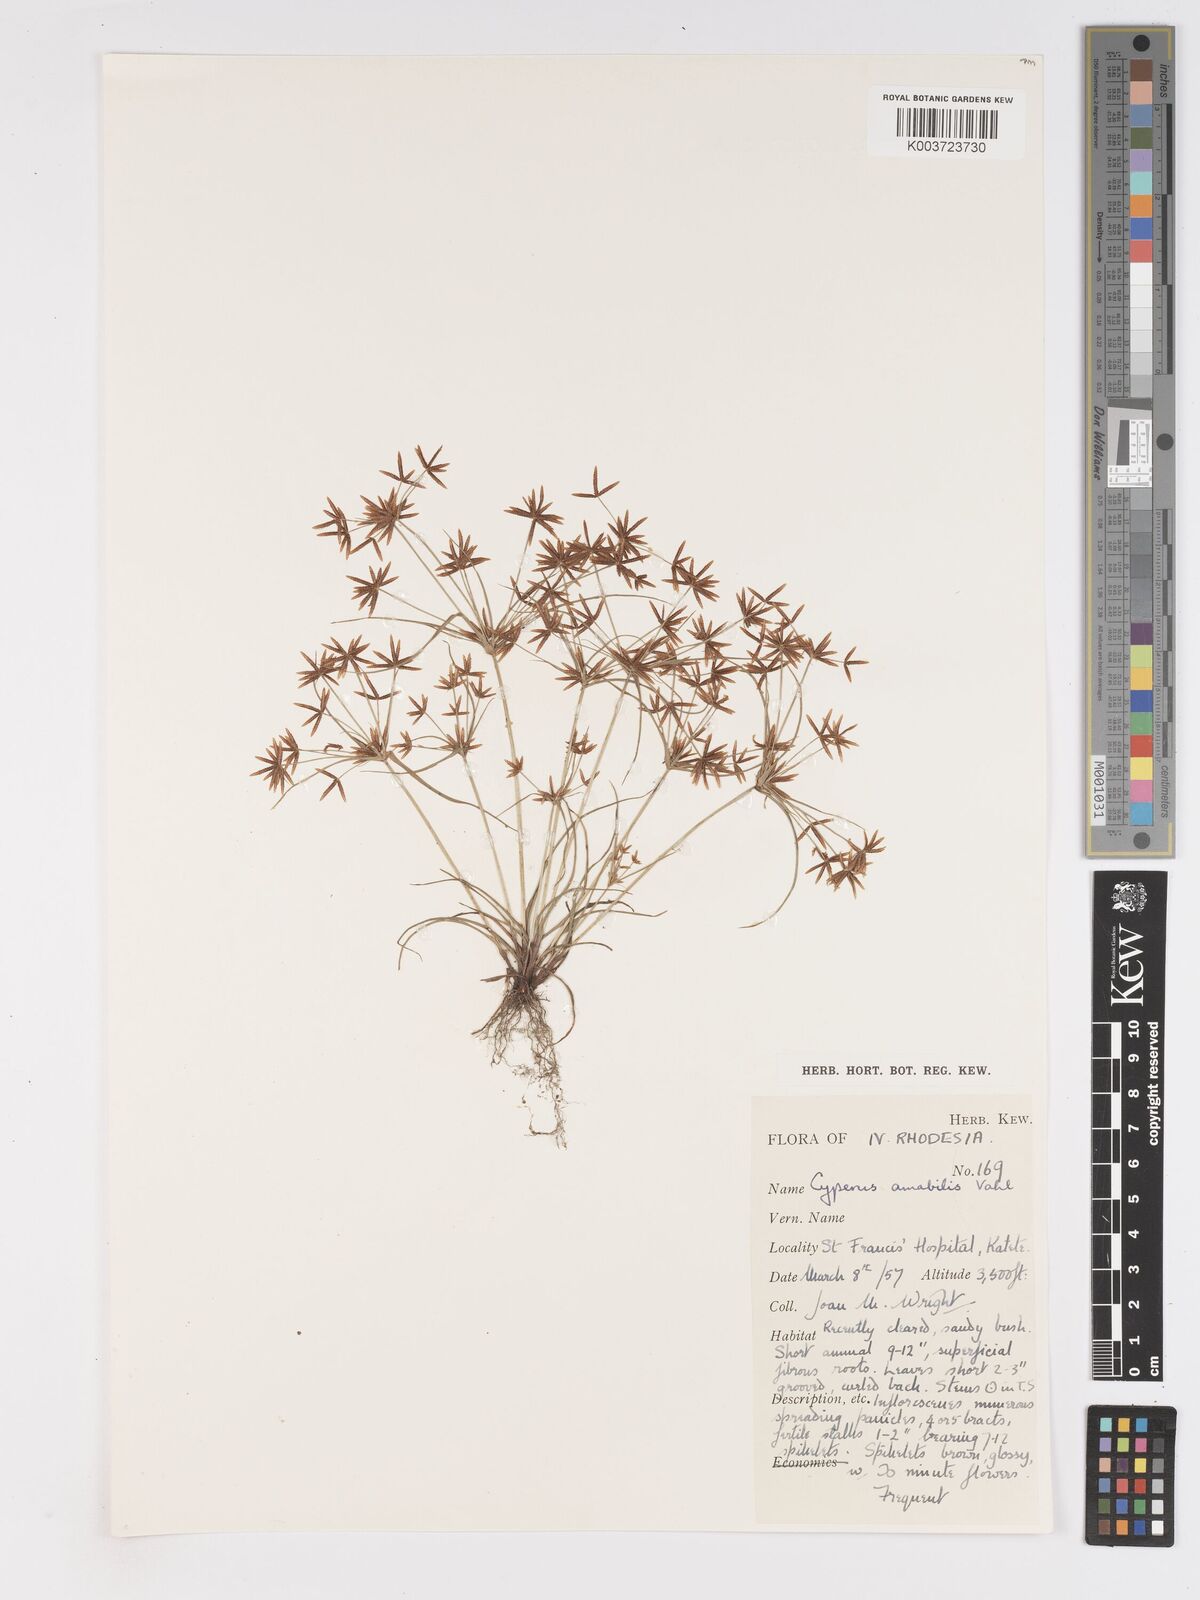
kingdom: Plantae
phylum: Tracheophyta
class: Liliopsida
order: Poales
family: Cyperaceae
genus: Cyperus
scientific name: Cyperus amabilis
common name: Foothill flat sedge
